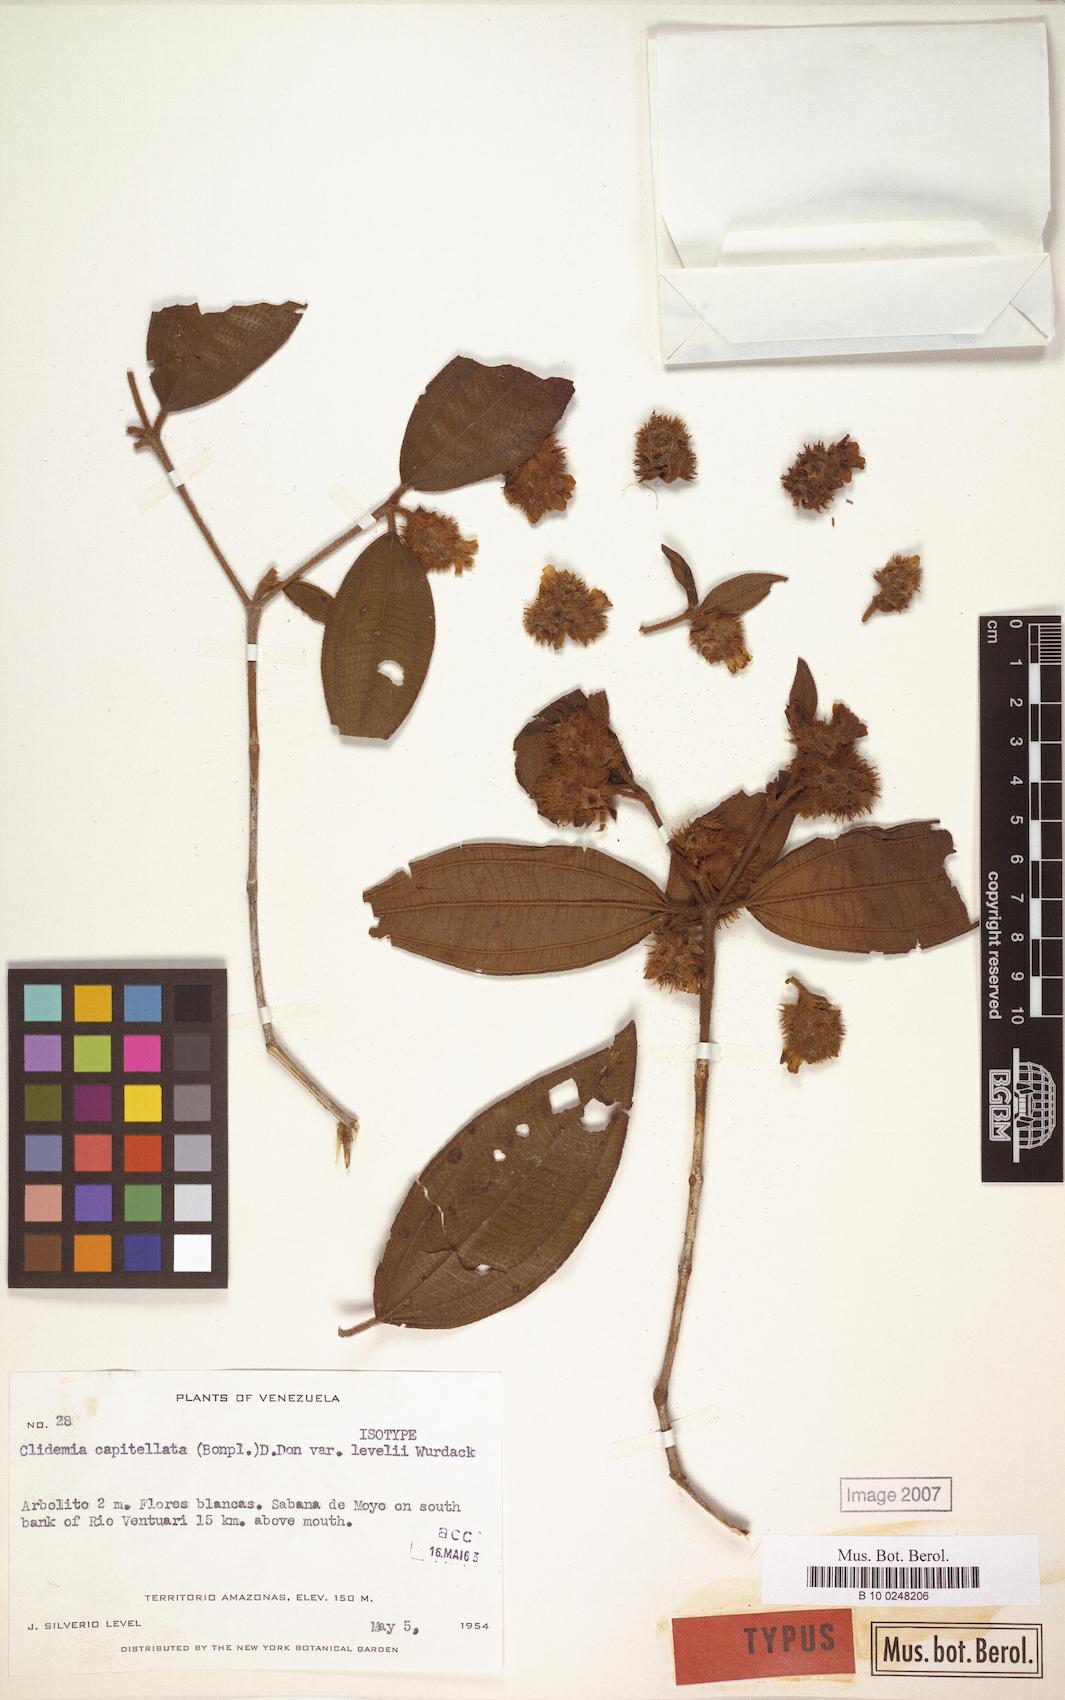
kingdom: Plantae
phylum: Tracheophyta
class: Magnoliopsida
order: Myrtales
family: Melastomataceae
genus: Miconia
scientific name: Miconia dependens
